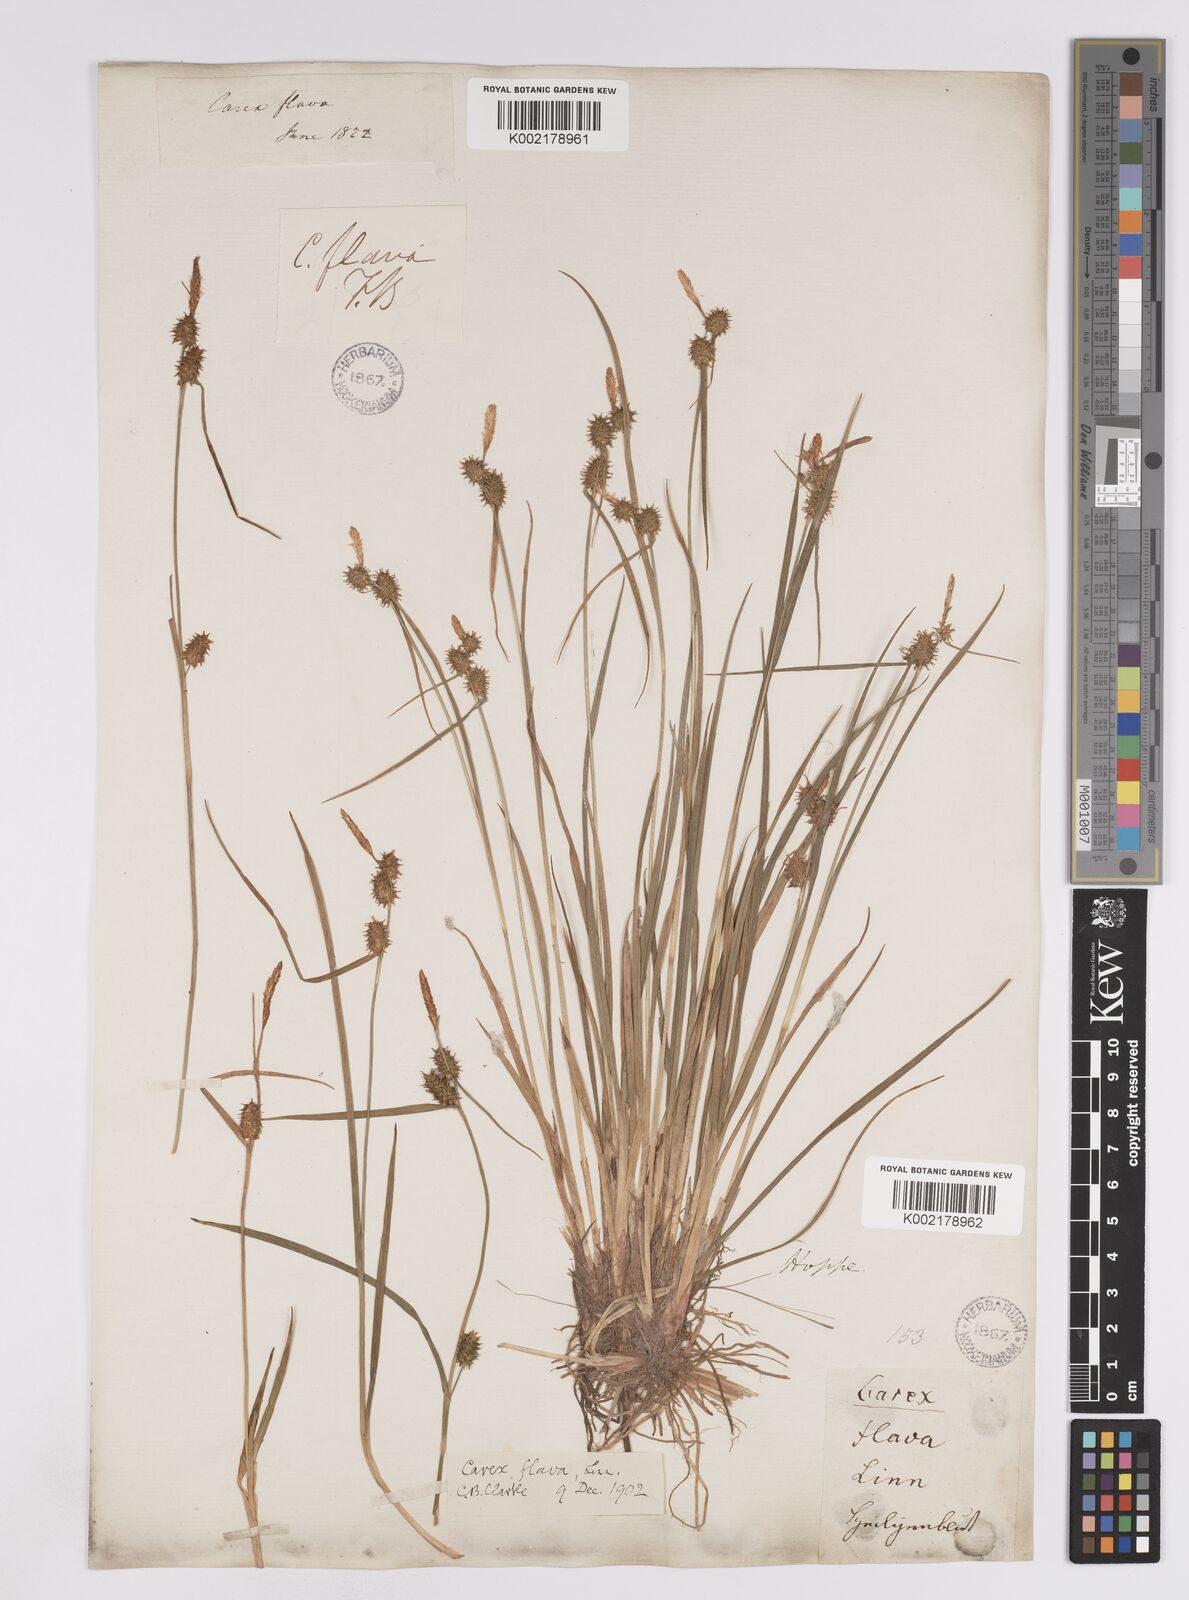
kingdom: Plantae
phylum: Tracheophyta
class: Liliopsida
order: Poales
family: Cyperaceae
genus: Carex
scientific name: Carex lepidocarpa
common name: Long-stalked yellow-sedge
